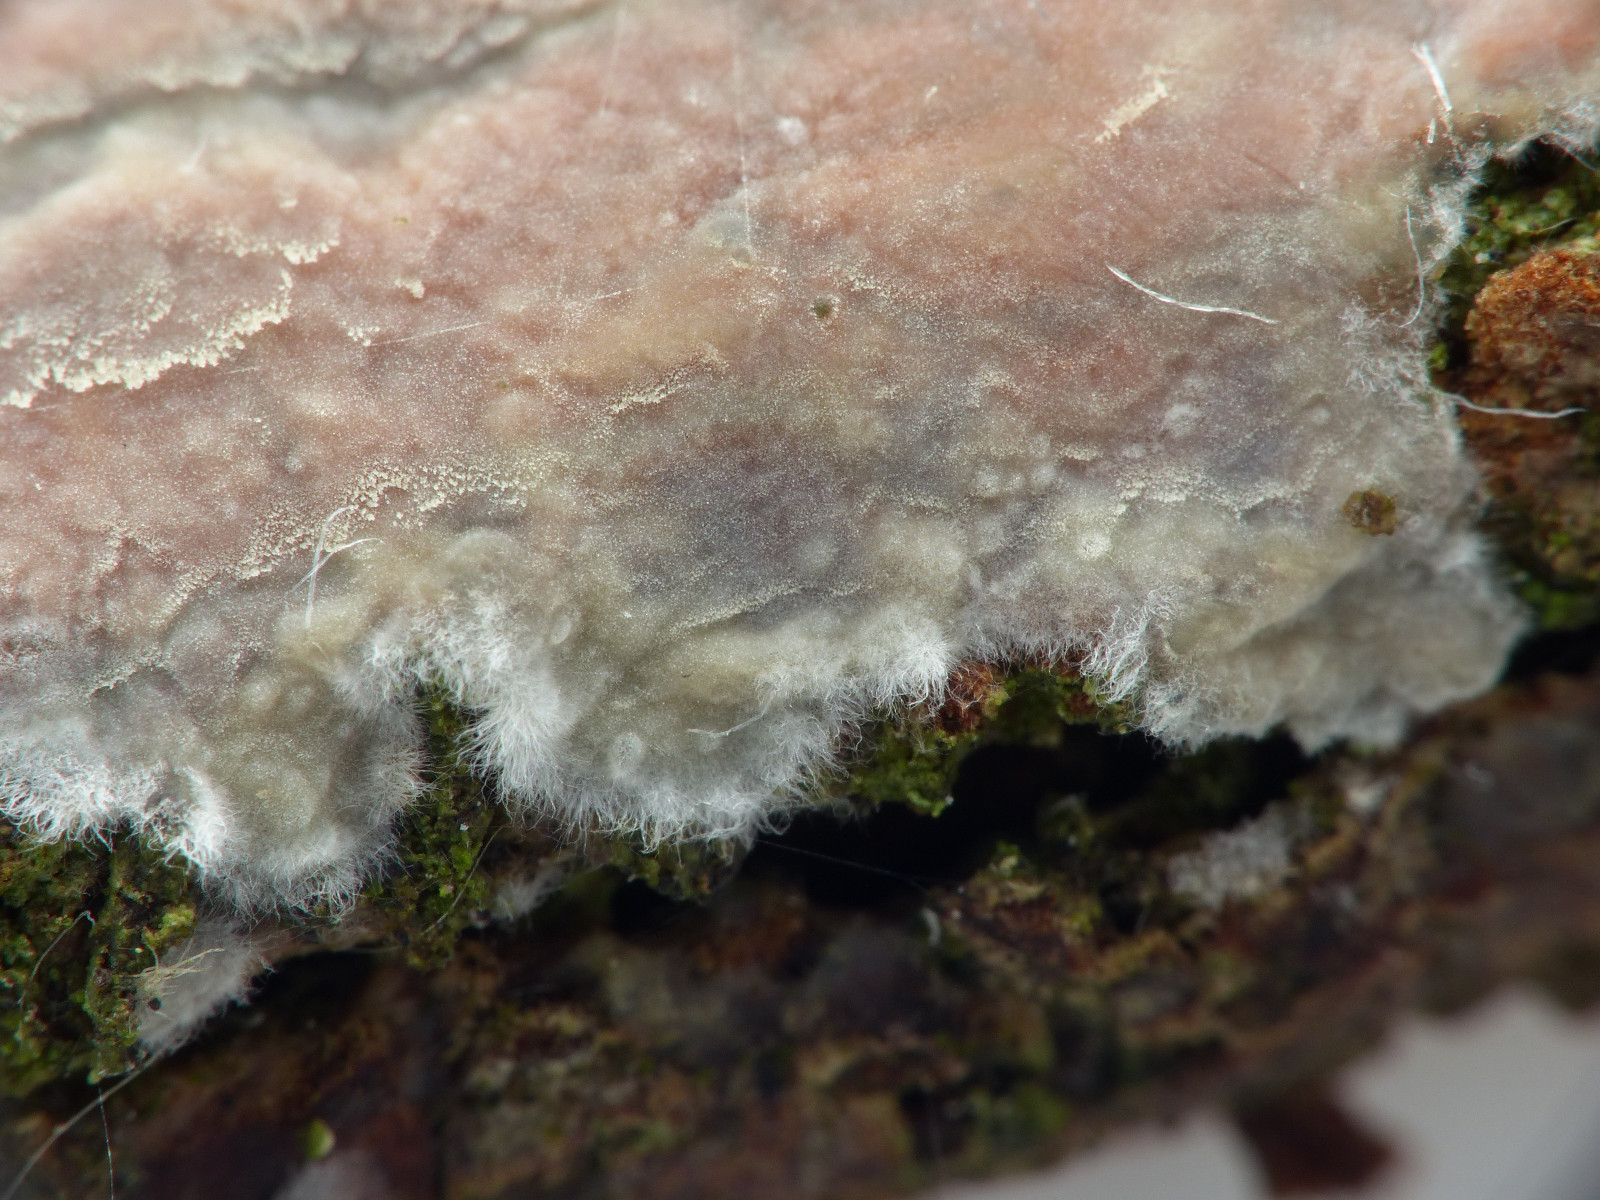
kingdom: Fungi
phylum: Basidiomycota
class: Agaricomycetes
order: Agaricales
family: Radulomycetaceae
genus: Radulomyces
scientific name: Radulomyces confluens
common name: glat naftalinskind
